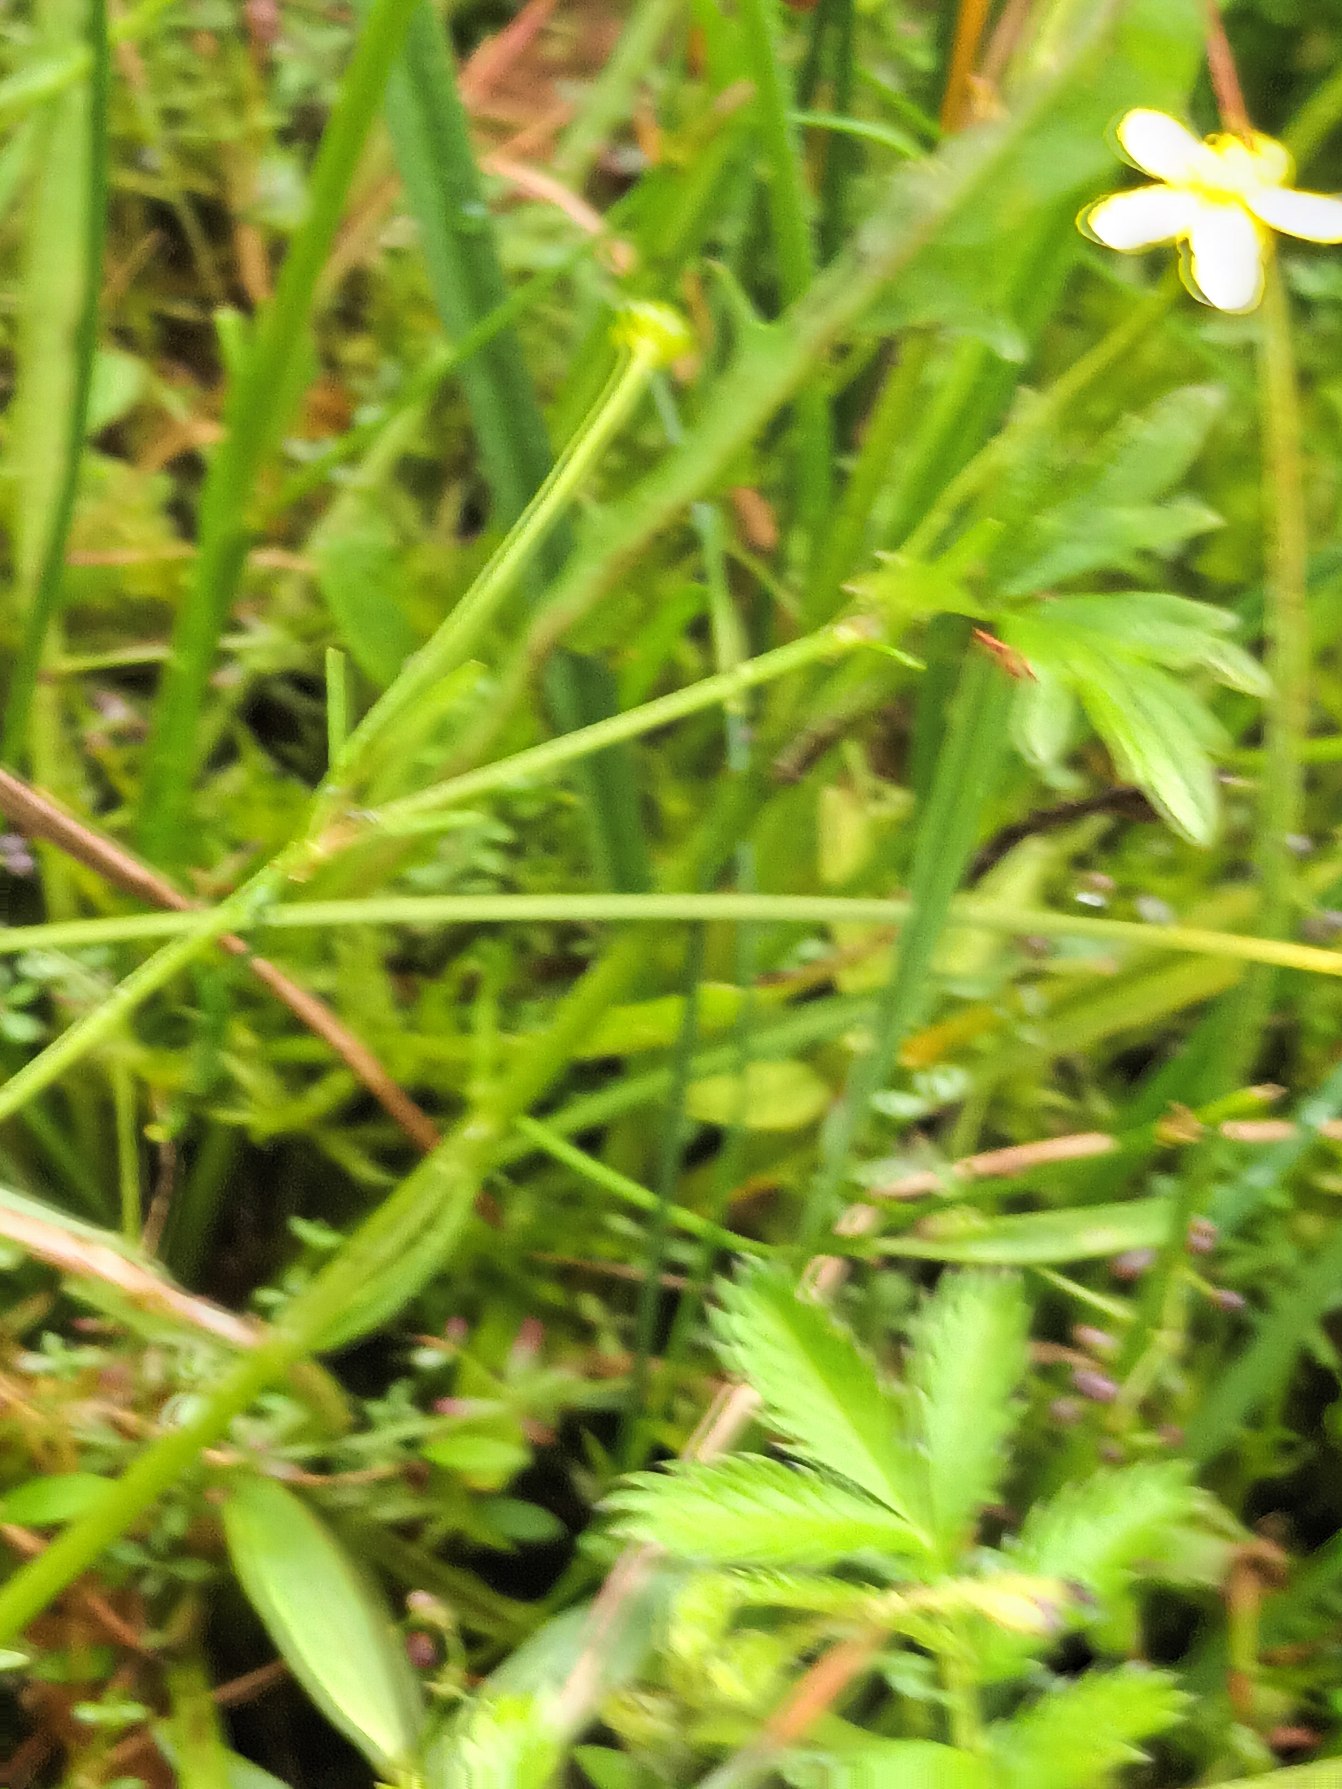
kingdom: Plantae
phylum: Tracheophyta
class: Magnoliopsida
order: Ranunculales
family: Ranunculaceae
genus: Ranunculus
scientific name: Ranunculus
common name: Ranunkelslægten
